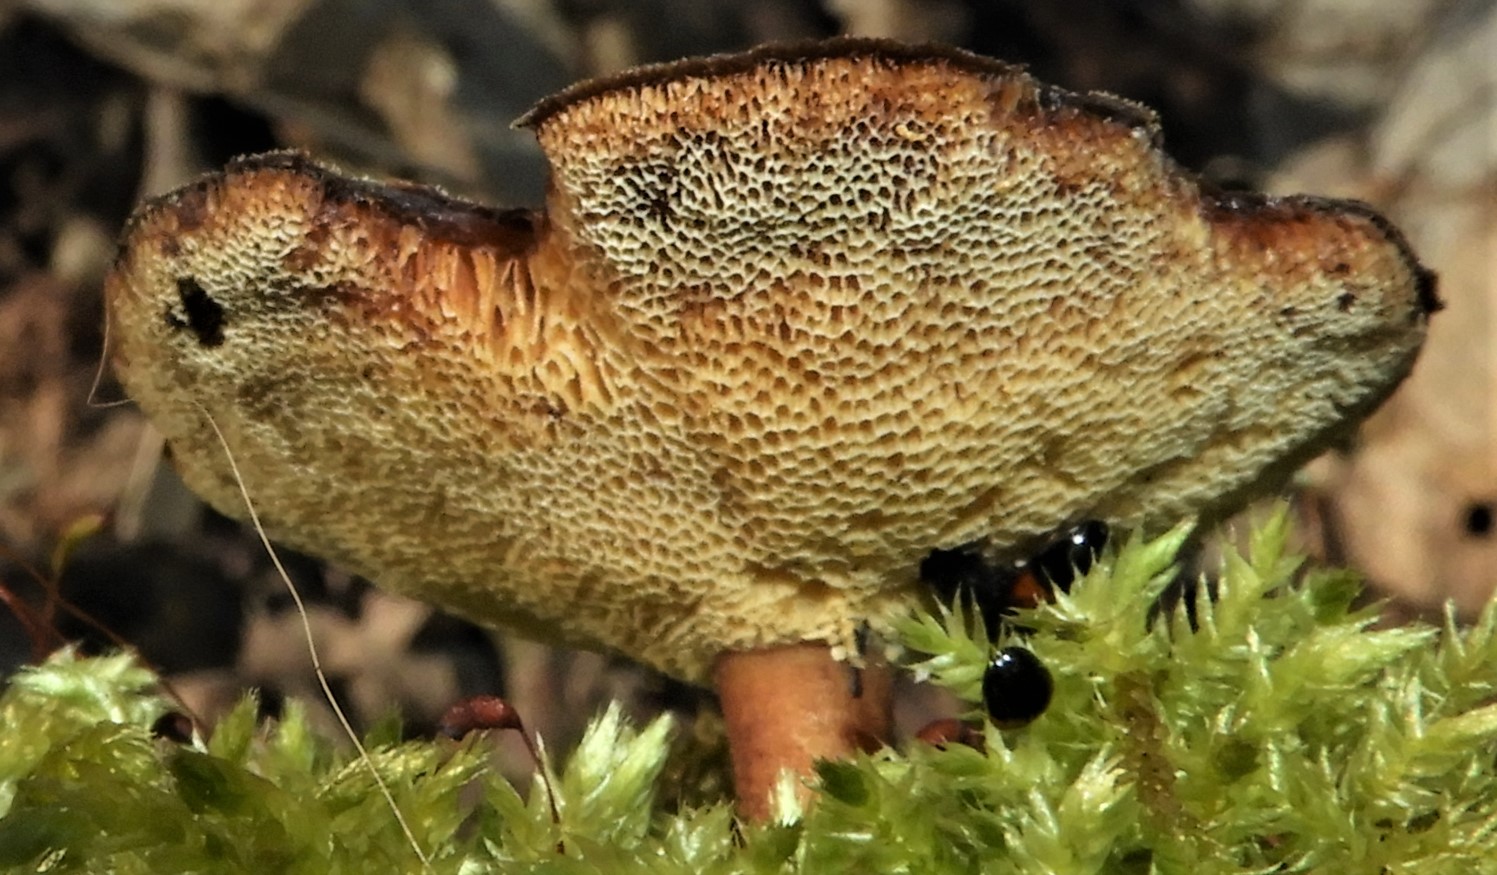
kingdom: Fungi
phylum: Basidiomycota
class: Agaricomycetes
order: Polyporales
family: Polyporaceae
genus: Lentinus
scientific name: Lentinus brumalis
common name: vinter-stilkporesvamp
